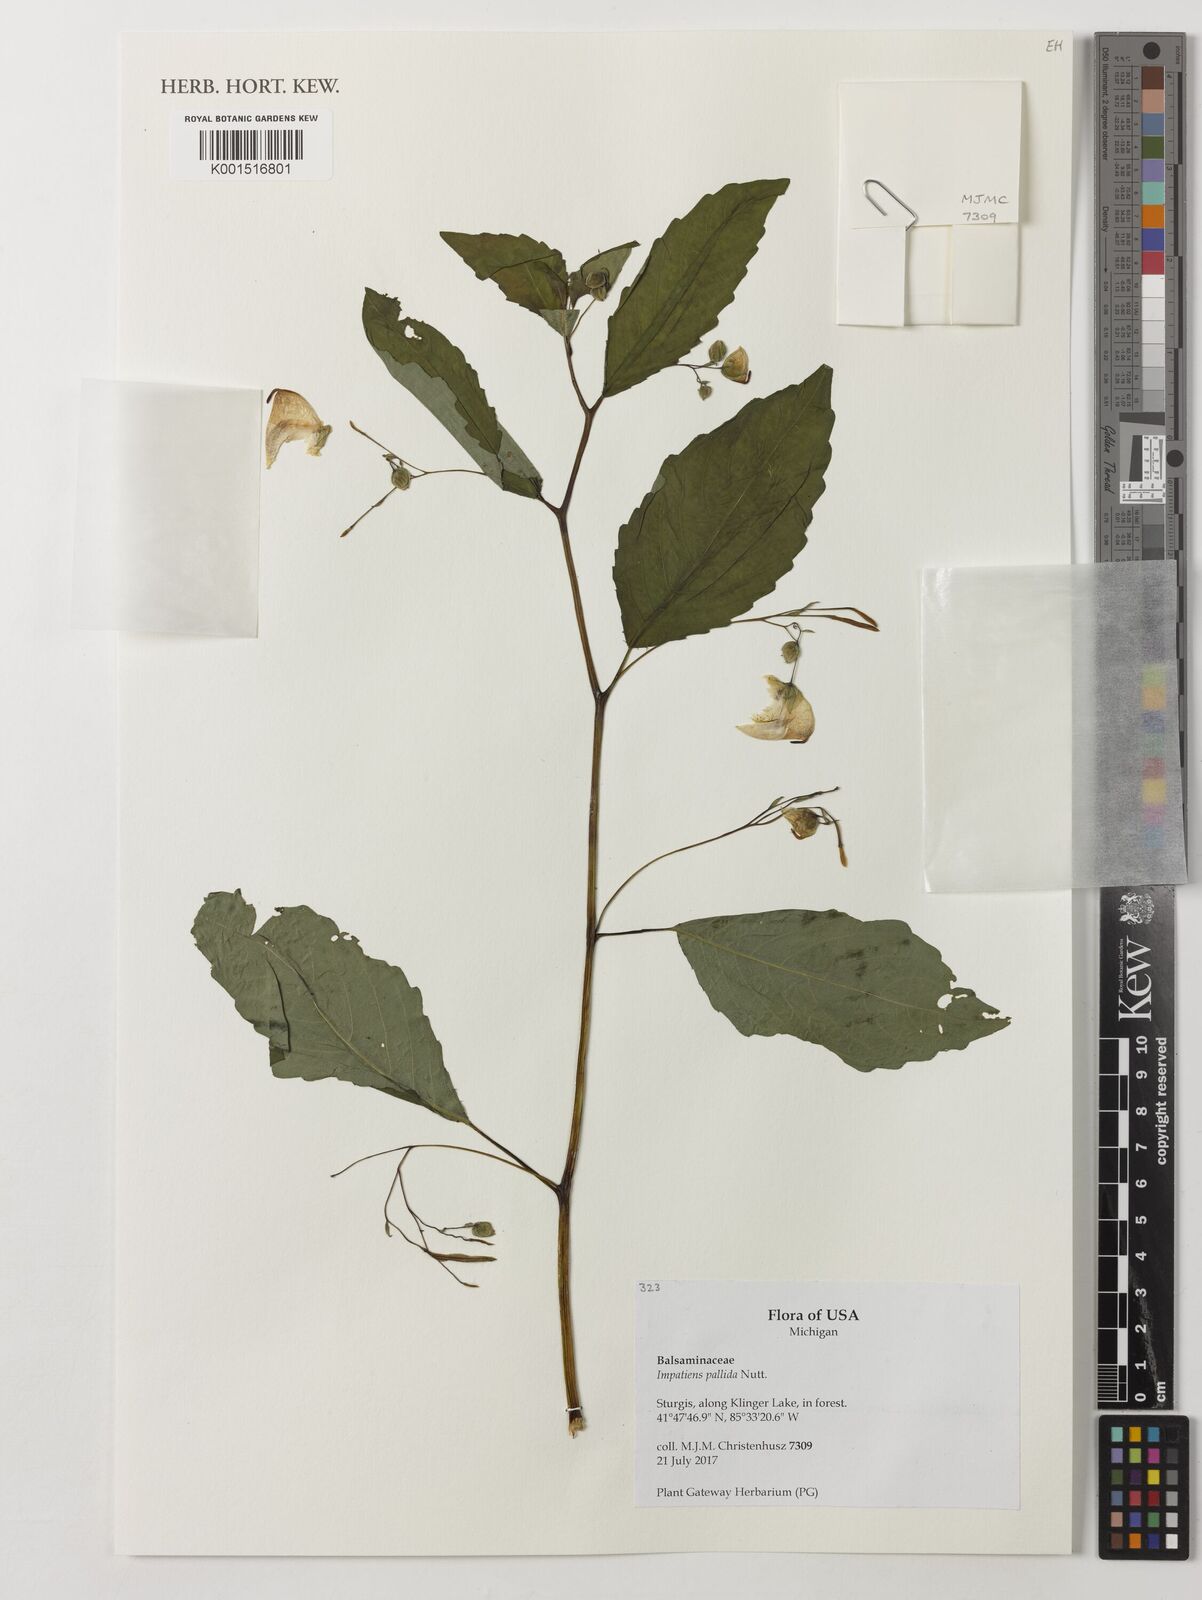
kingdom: Plantae
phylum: Tracheophyta
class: Magnoliopsida
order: Ericales
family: Balsaminaceae
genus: Impatiens
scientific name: Impatiens pallida
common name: Pale snapweed
